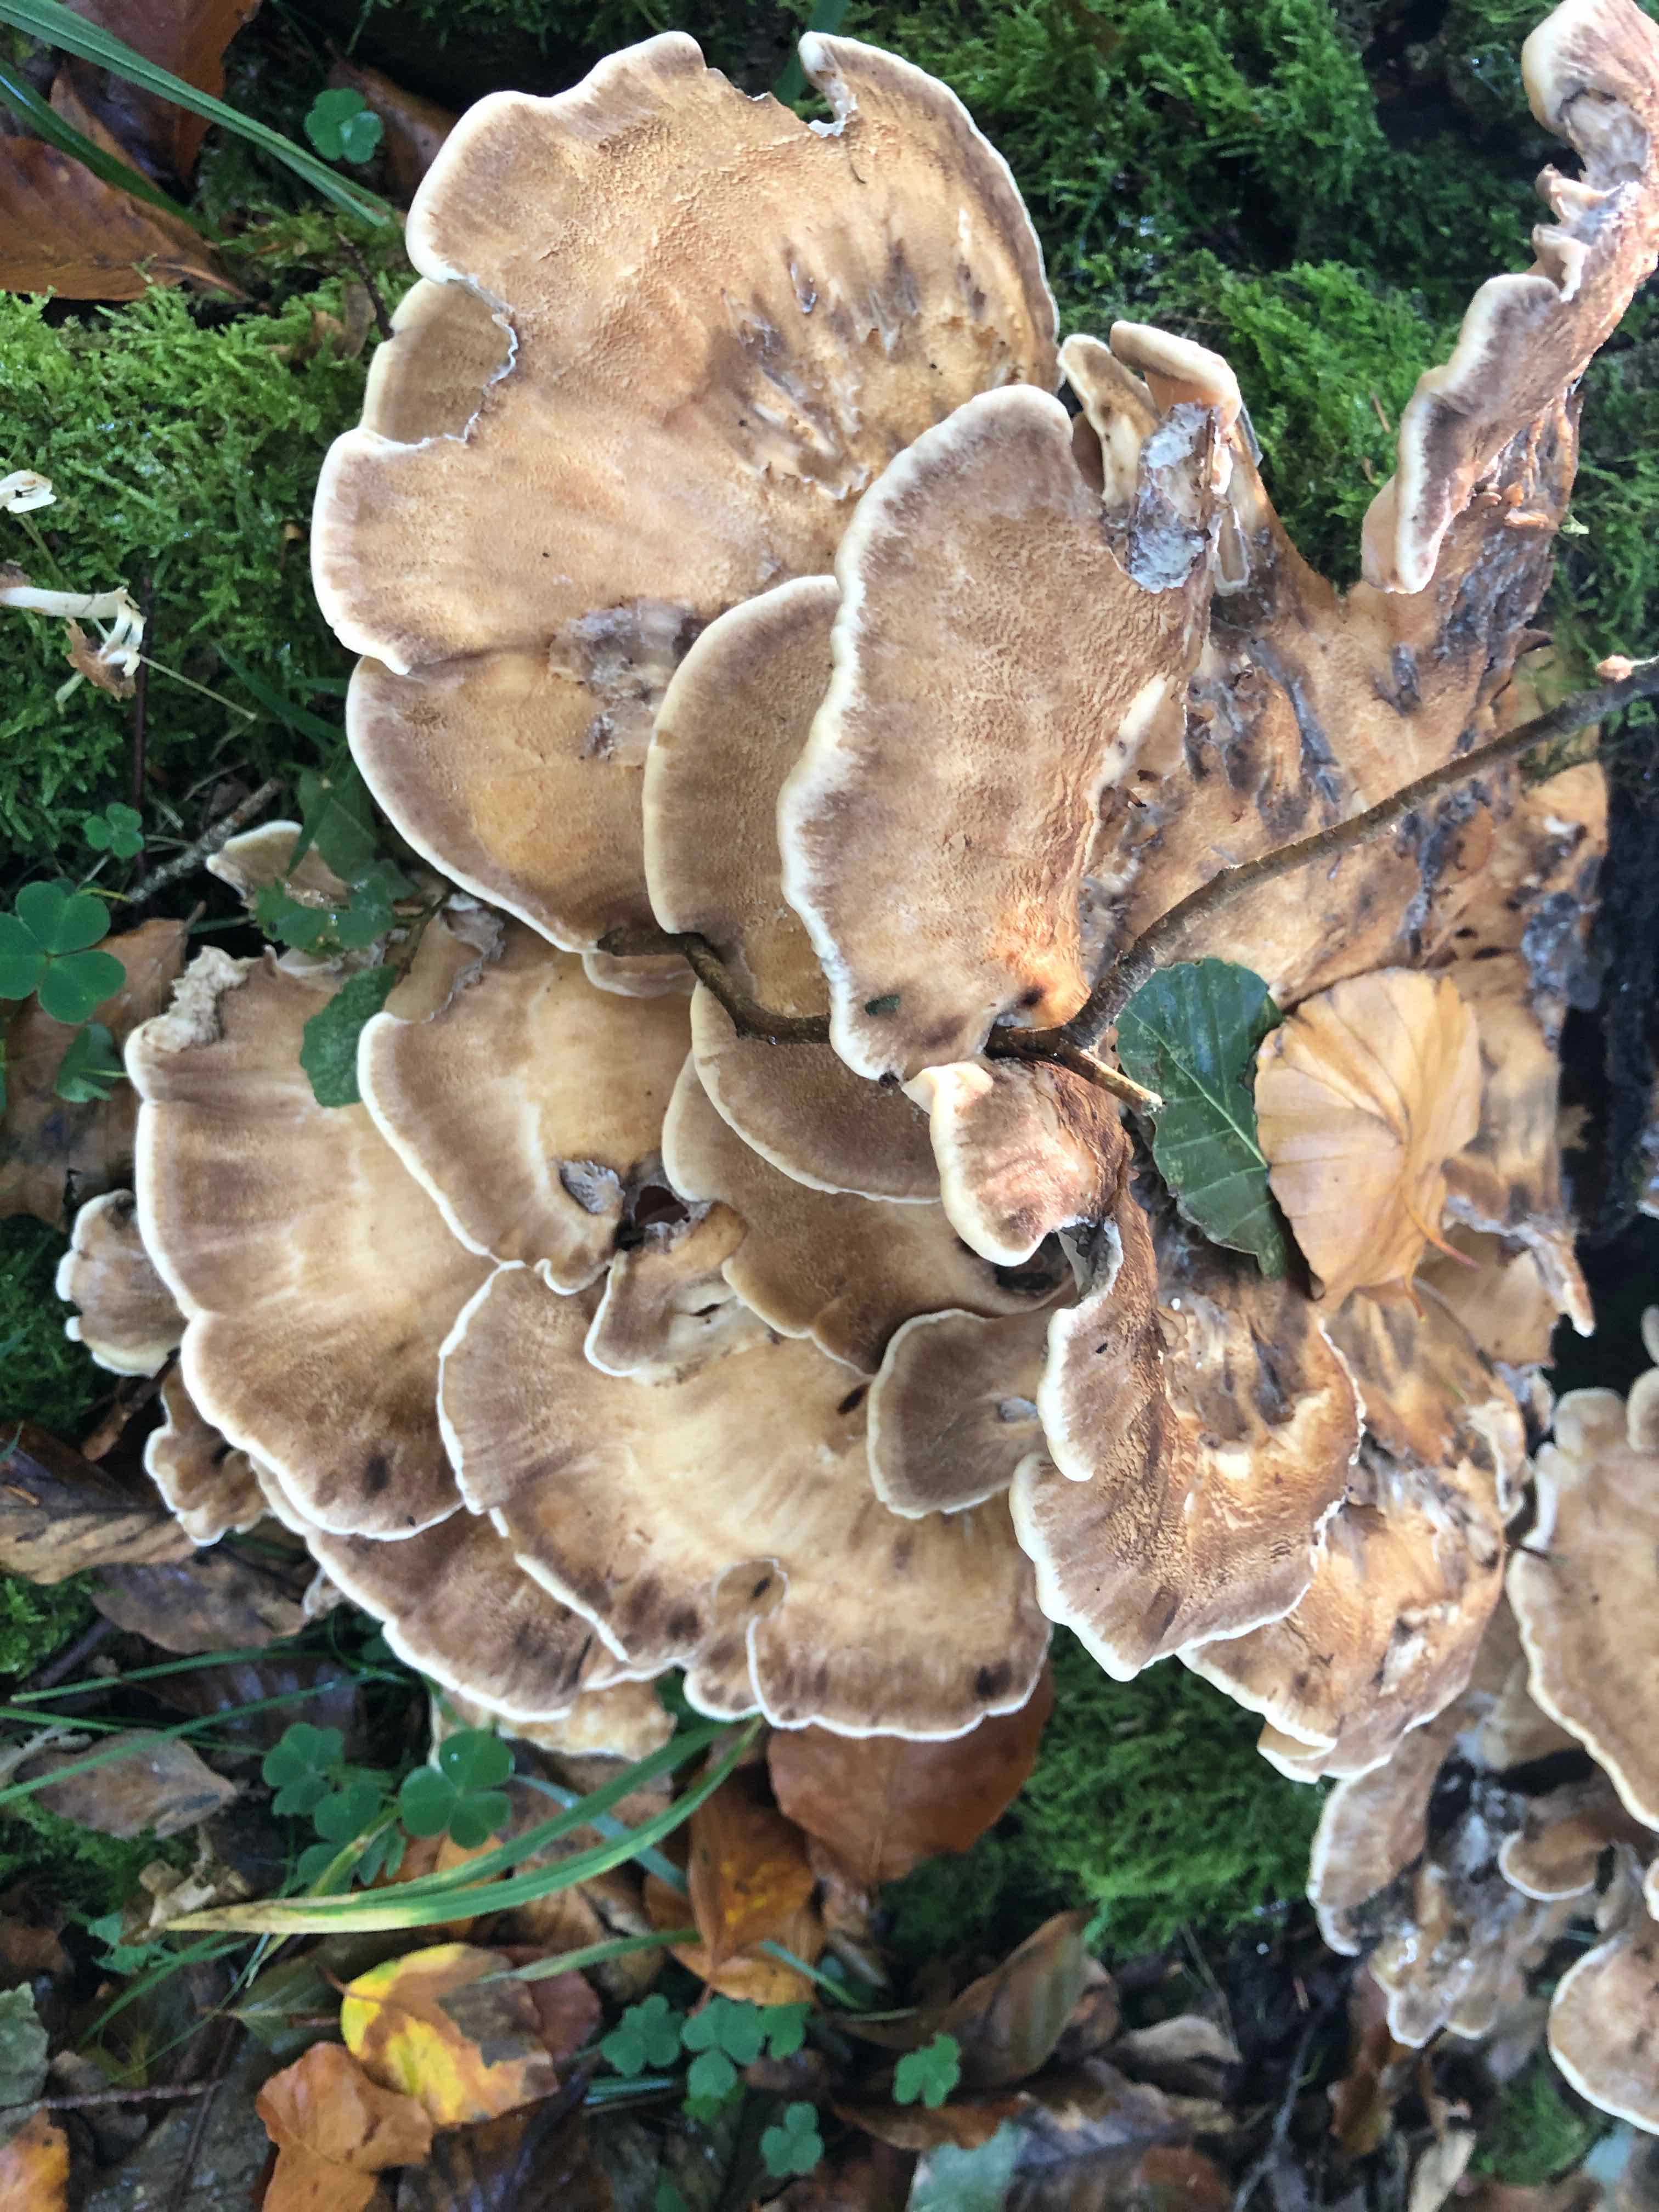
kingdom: Fungi
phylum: Basidiomycota
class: Agaricomycetes
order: Polyporales
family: Meripilaceae
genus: Meripilus
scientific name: Meripilus giganteus
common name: kæmpeporesvamp
